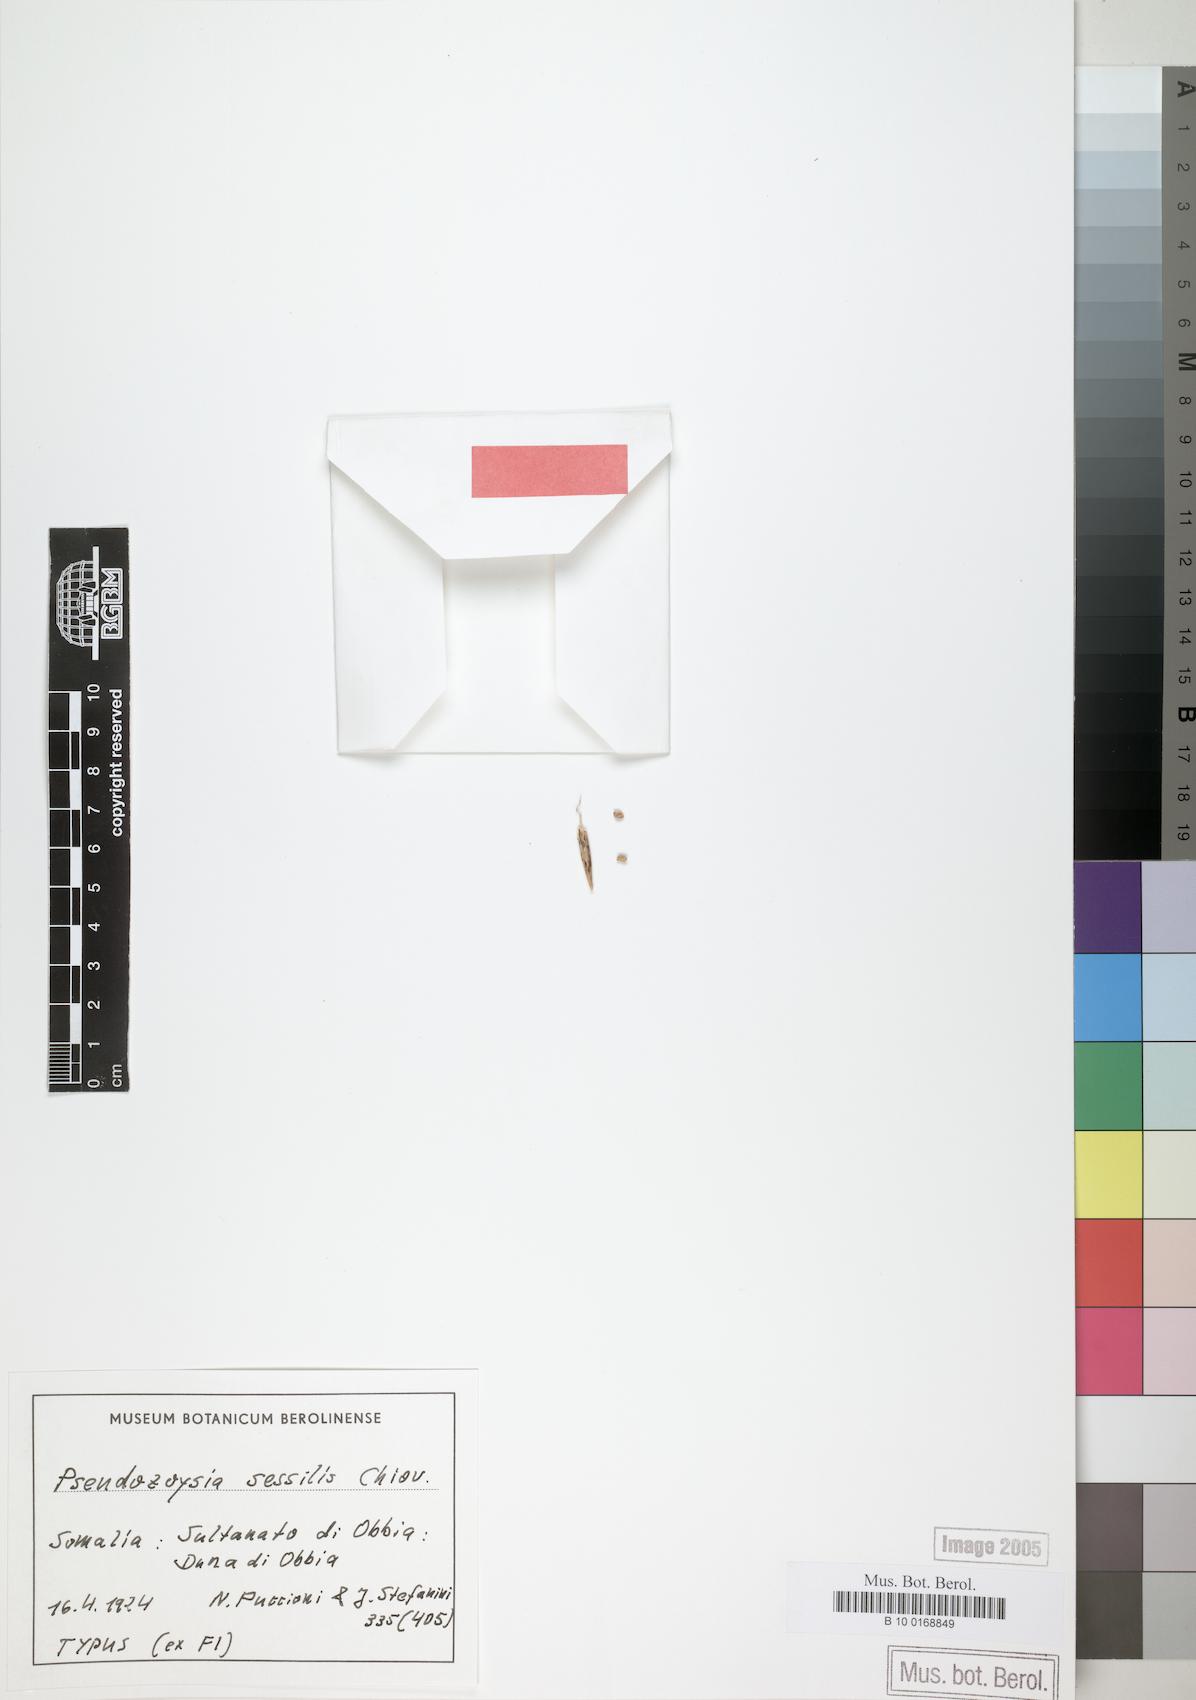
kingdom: Plantae
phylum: Tracheophyta
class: Liliopsida
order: Poales
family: Poaceae
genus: Pseudozoysia
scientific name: Pseudozoysia sessilis
